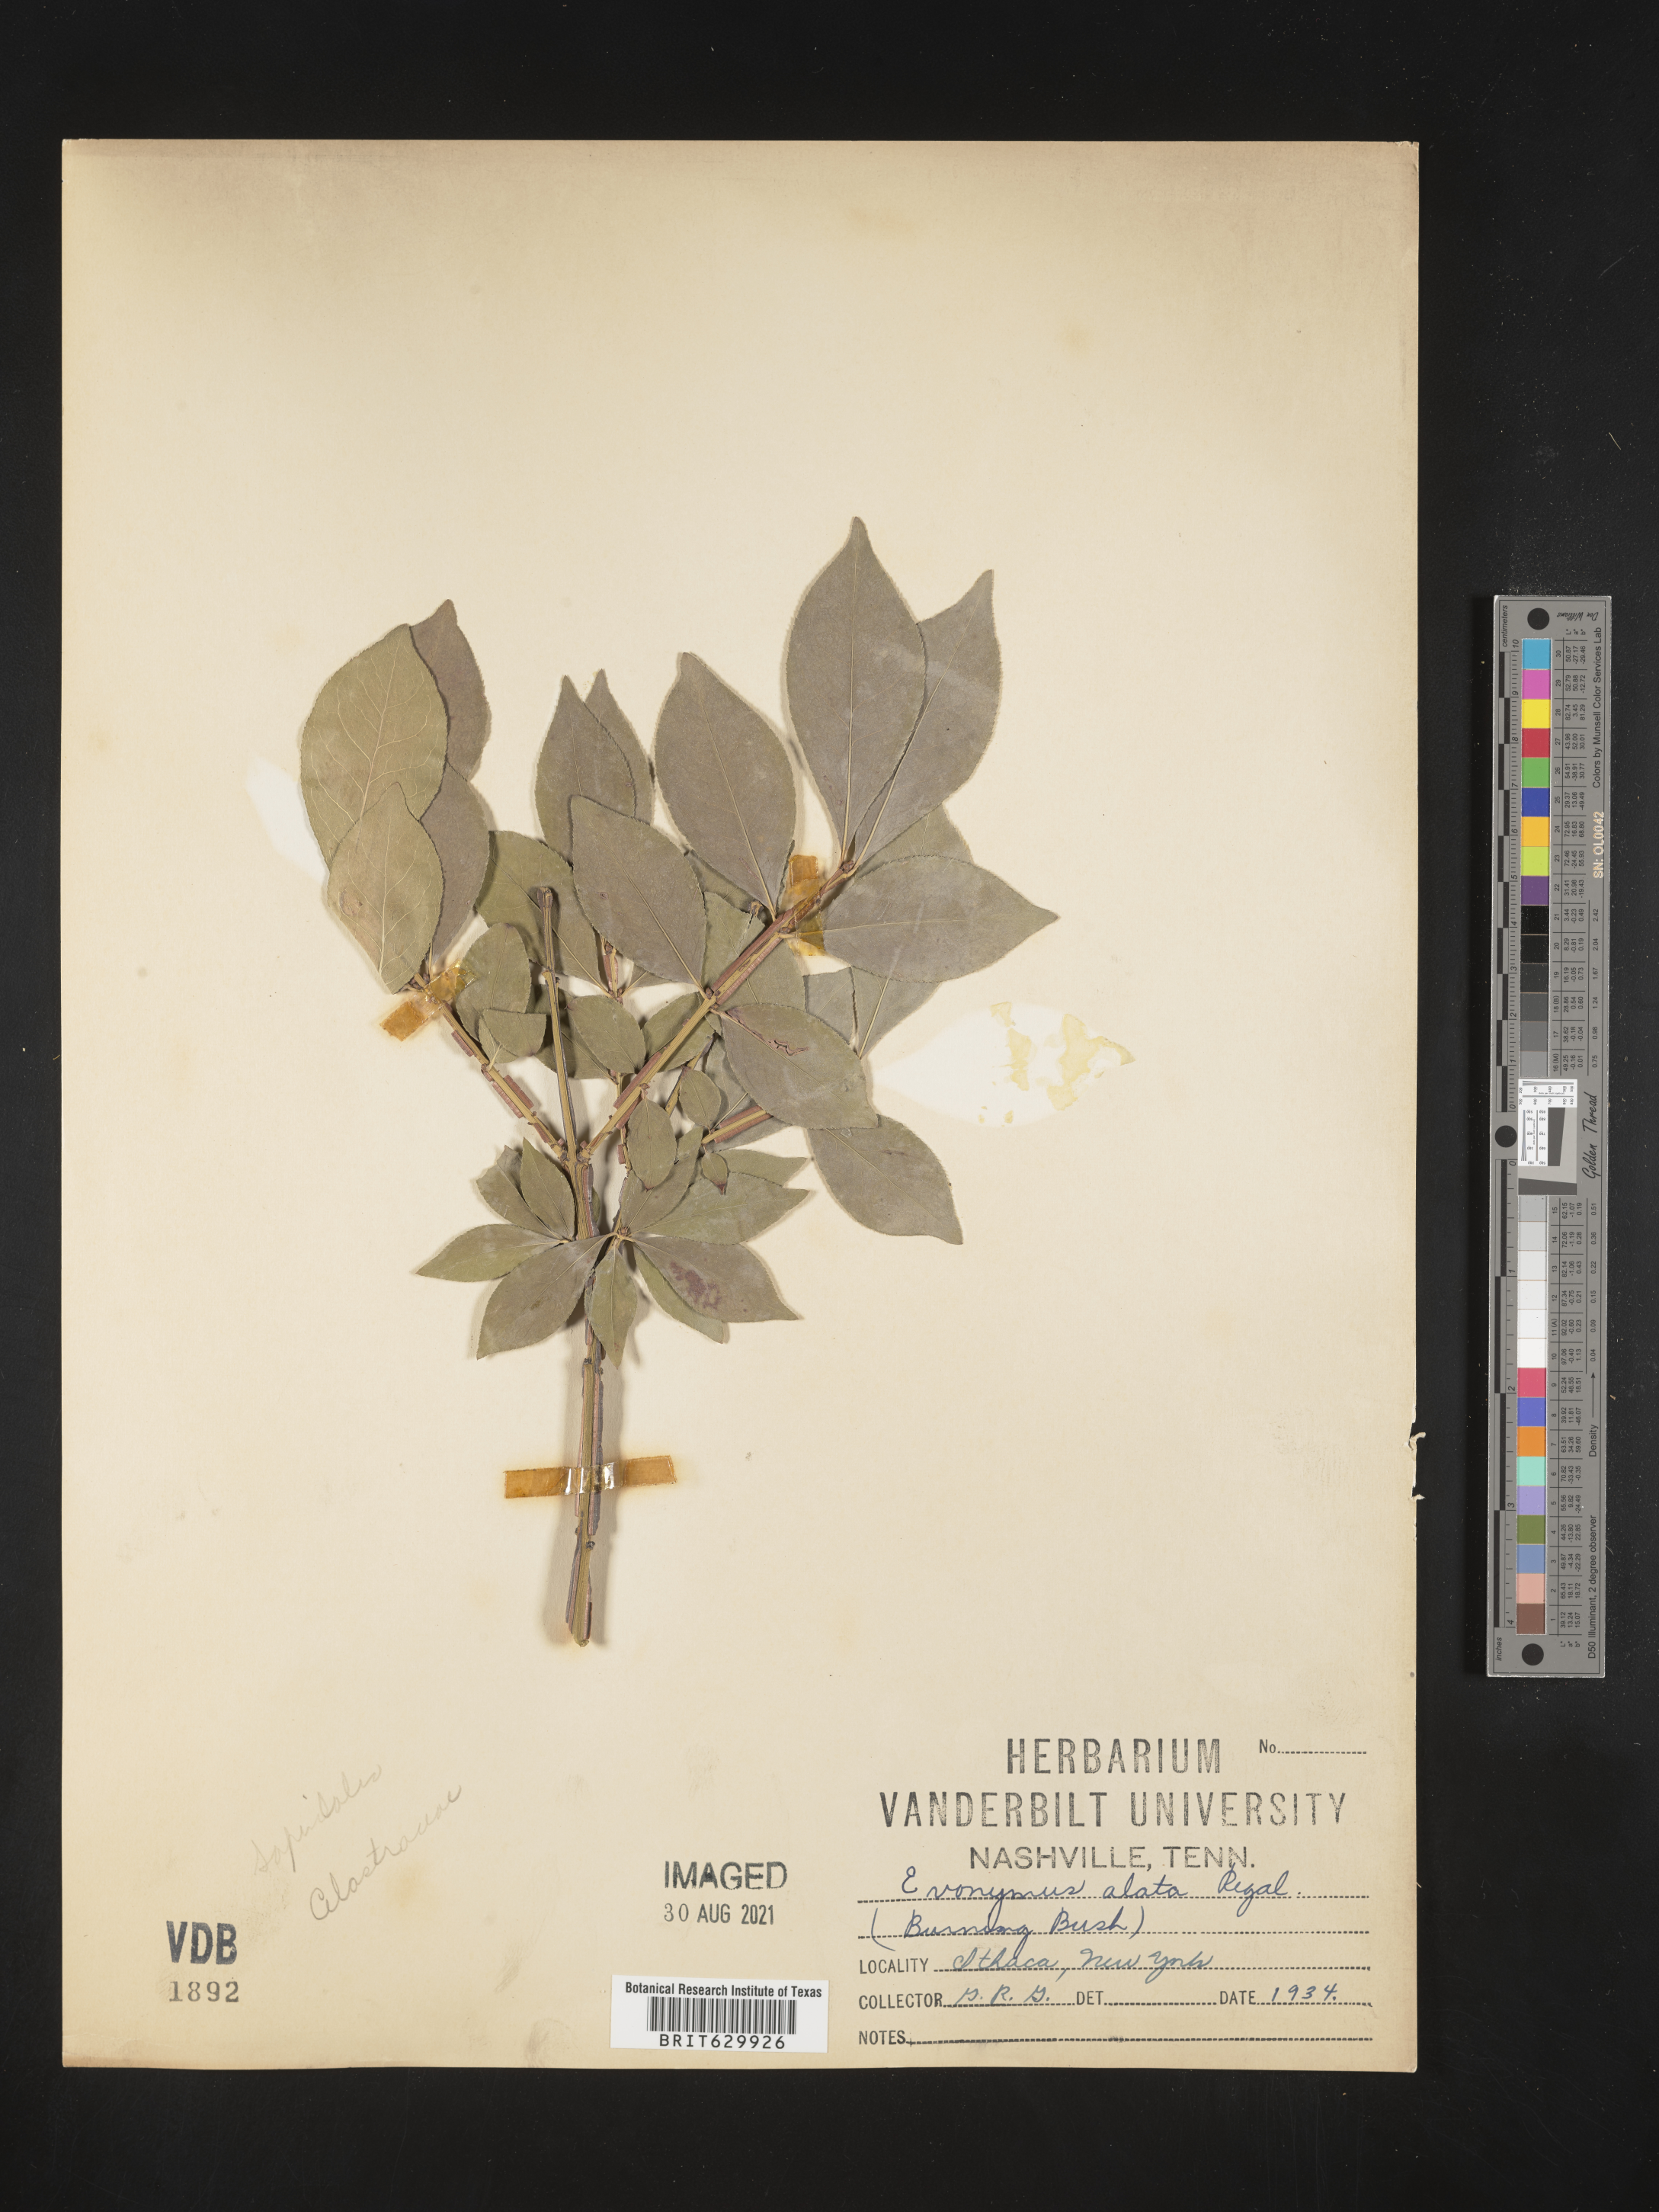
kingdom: Plantae
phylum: Tracheophyta
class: Magnoliopsida
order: Celastrales
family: Celastraceae
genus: Euonymus
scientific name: Euonymus alatus
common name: Winged euonymus
